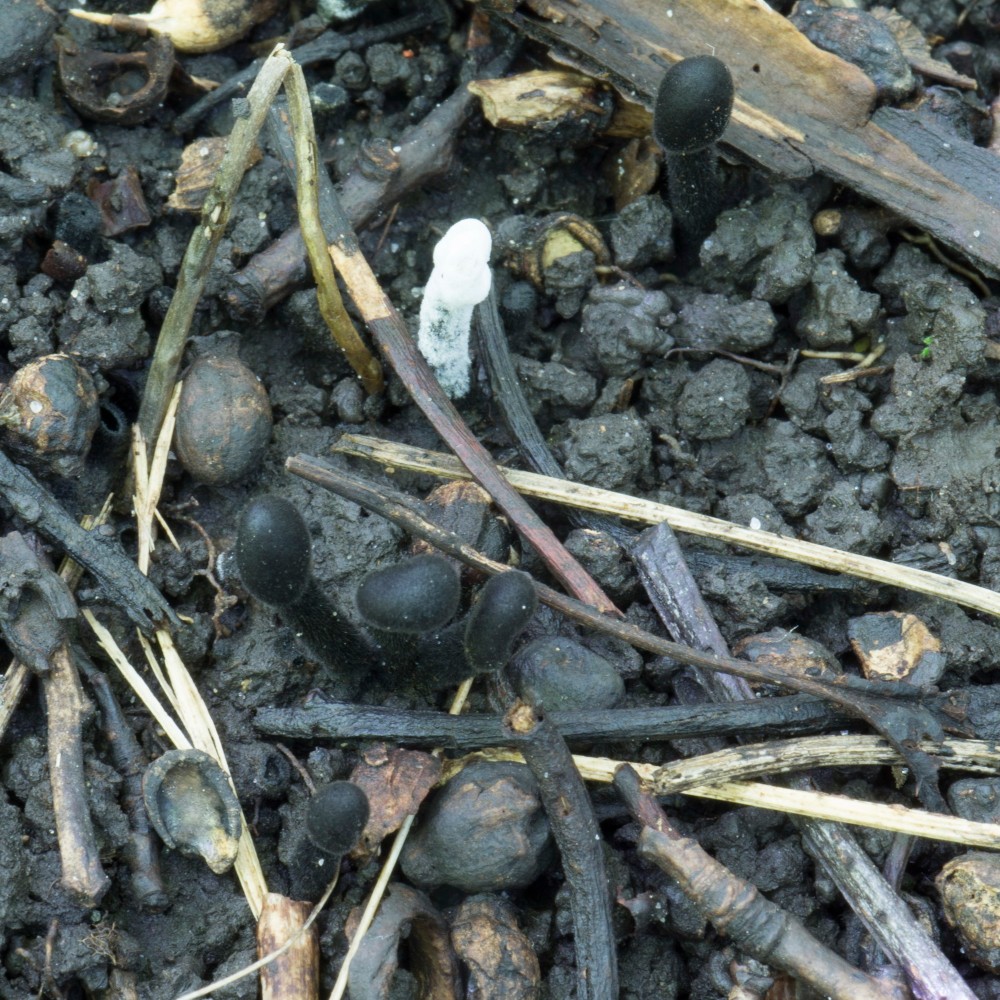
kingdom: Fungi
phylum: Ascomycota
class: Geoglossomycetes
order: Geoglossales
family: Geoglossaceae
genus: Trichoglossum
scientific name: Trichoglossum hirsutum
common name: håret jordtunge
